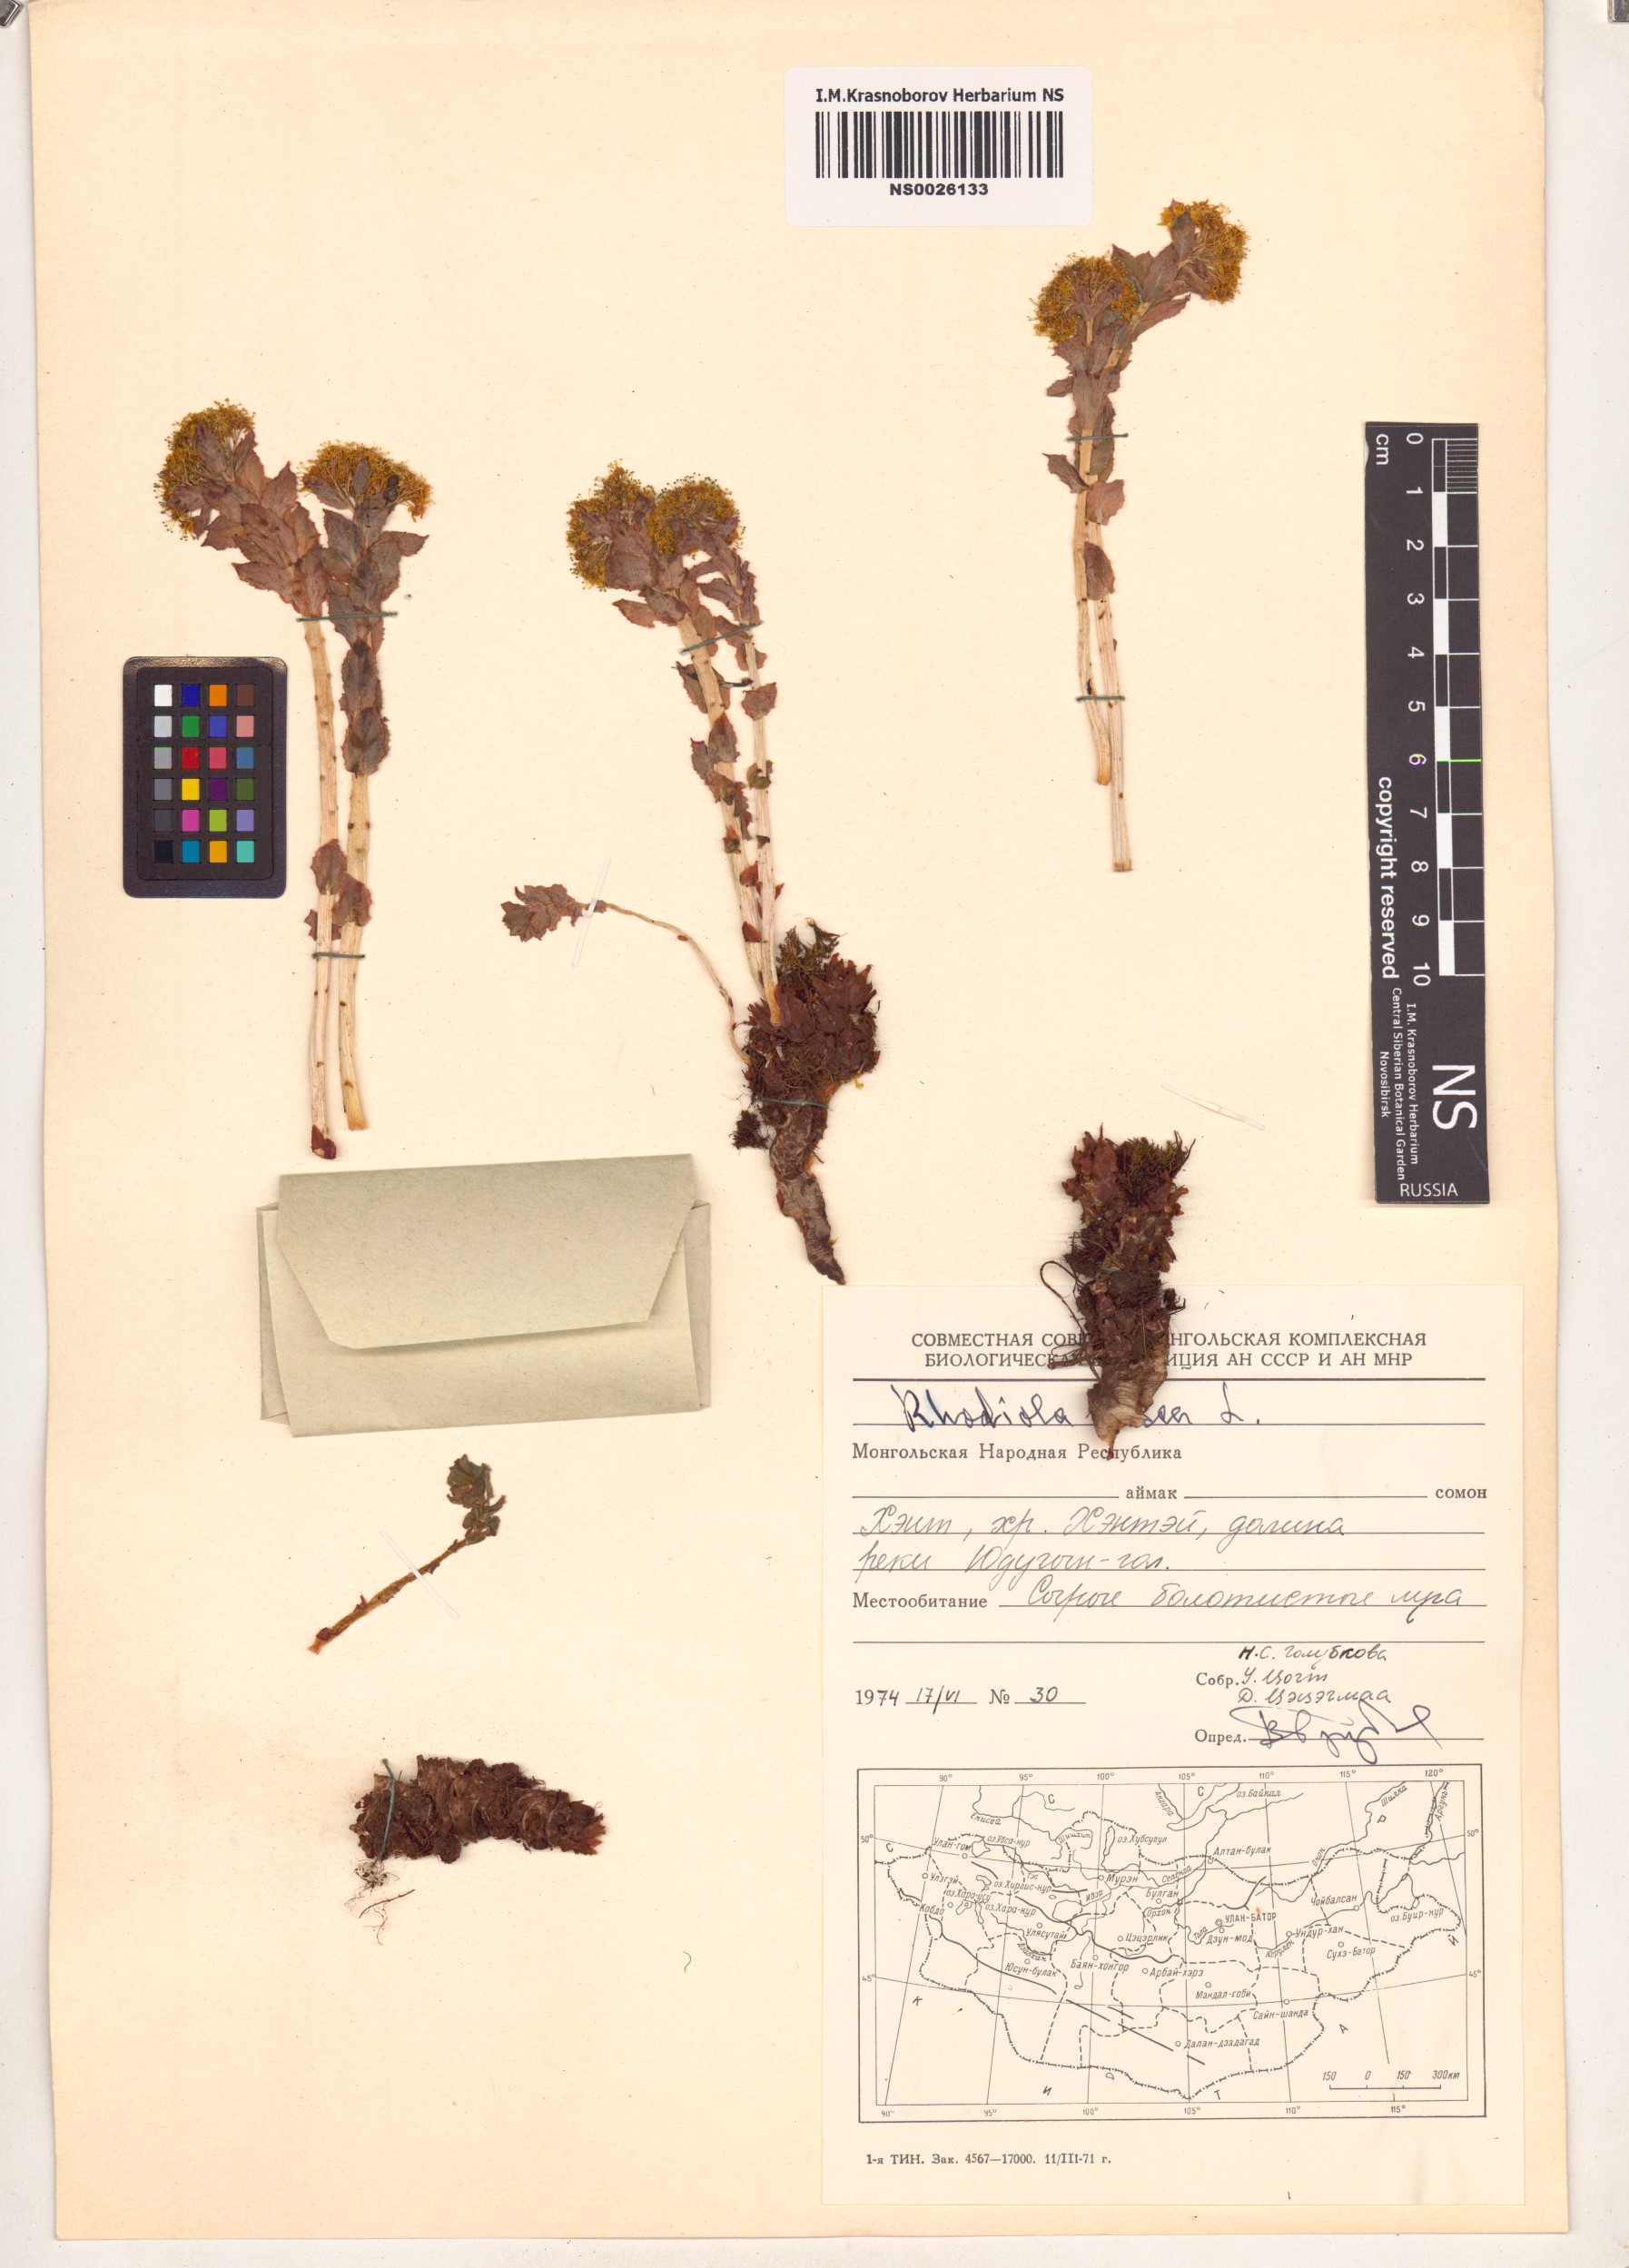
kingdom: Plantae
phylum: Tracheophyta
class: Magnoliopsida
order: Saxifragales
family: Crassulaceae
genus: Rhodiola
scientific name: Rhodiola rosea
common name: Roseroot
